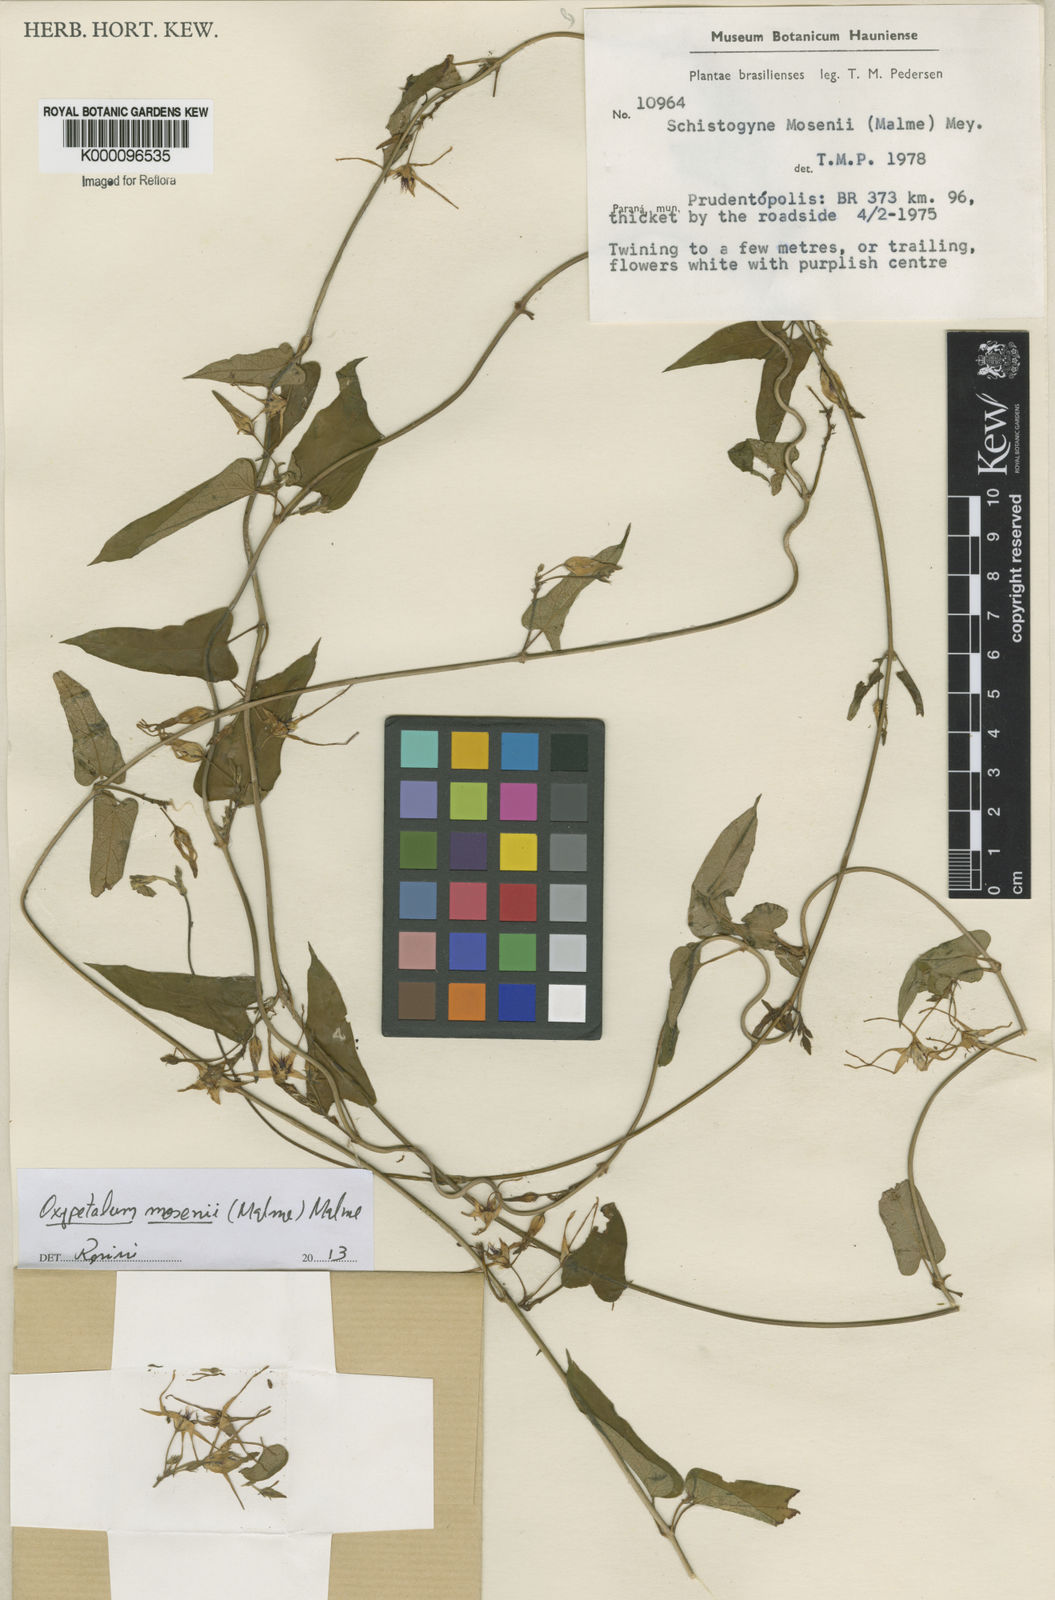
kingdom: Plantae
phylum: Tracheophyta
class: Magnoliopsida
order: Gentianales
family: Apocynaceae
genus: Oxypetalum
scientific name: Oxypetalum mosenii
